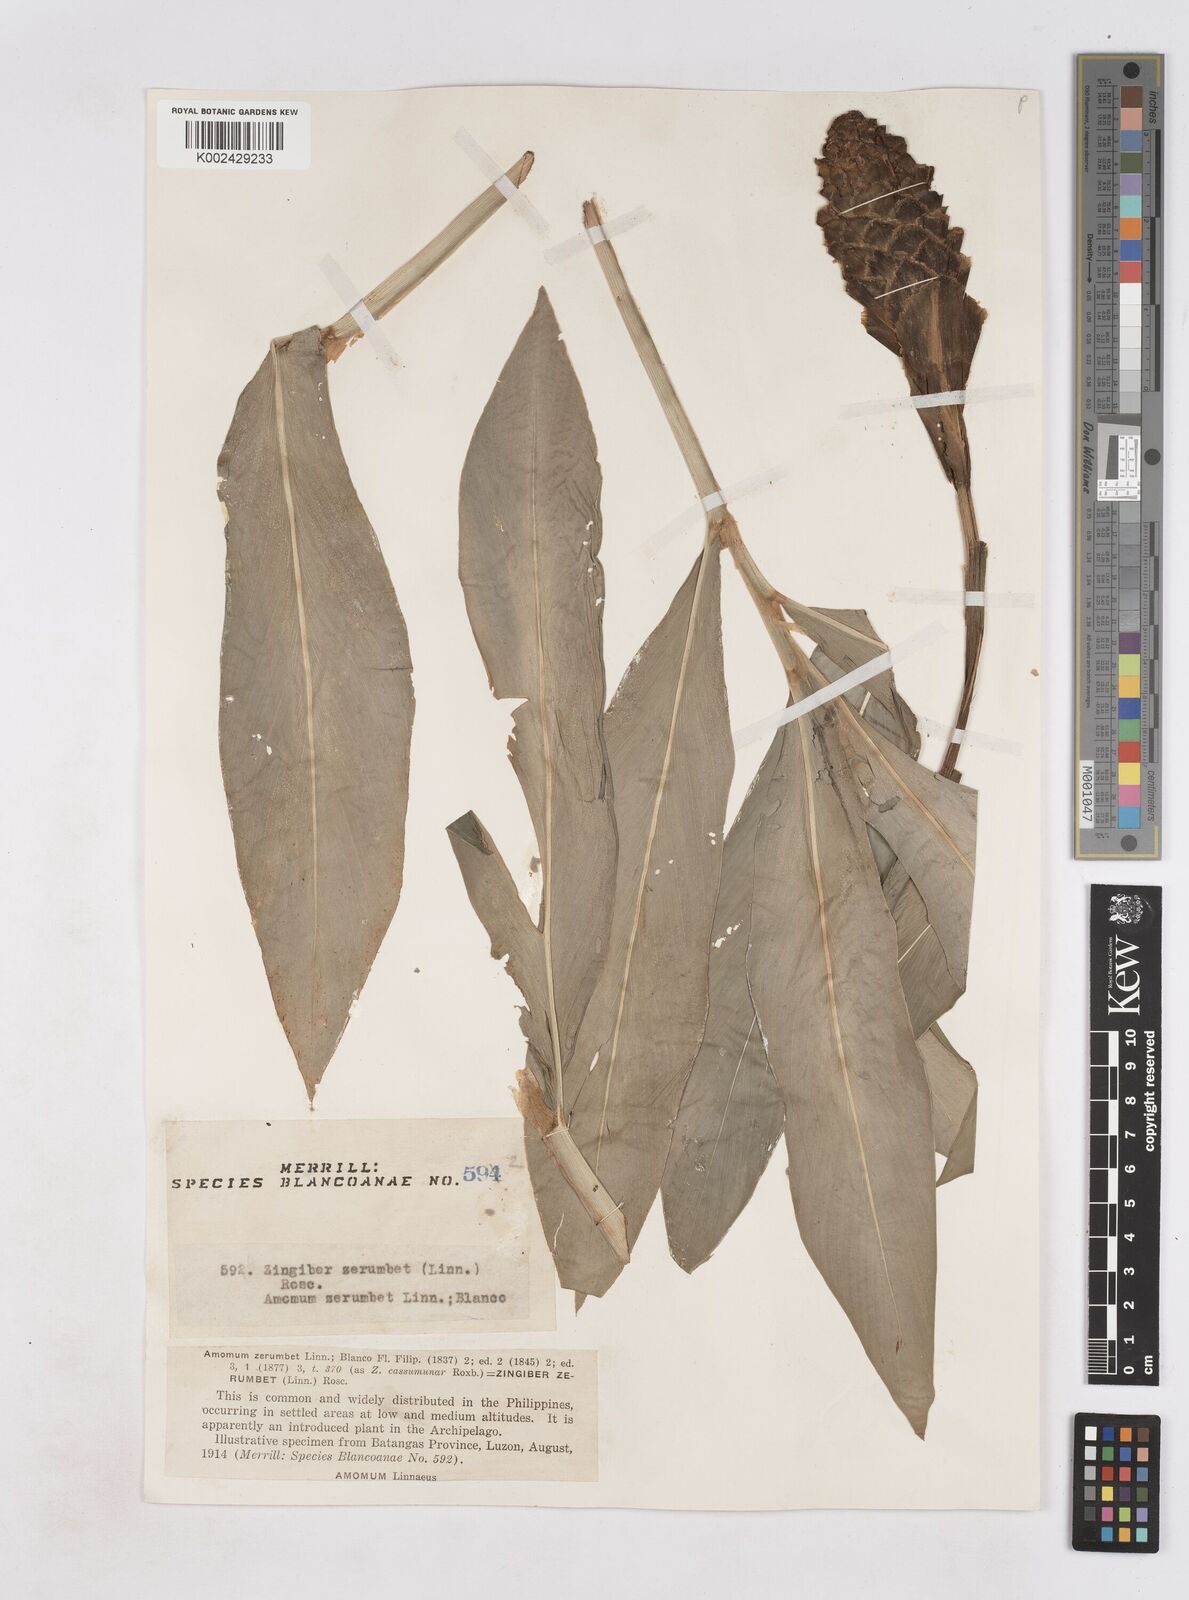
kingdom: Plantae
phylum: Tracheophyta
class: Liliopsida
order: Zingiberales
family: Zingiberaceae
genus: Zingiber
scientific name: Zingiber zerumbet
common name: Bitter ginger
